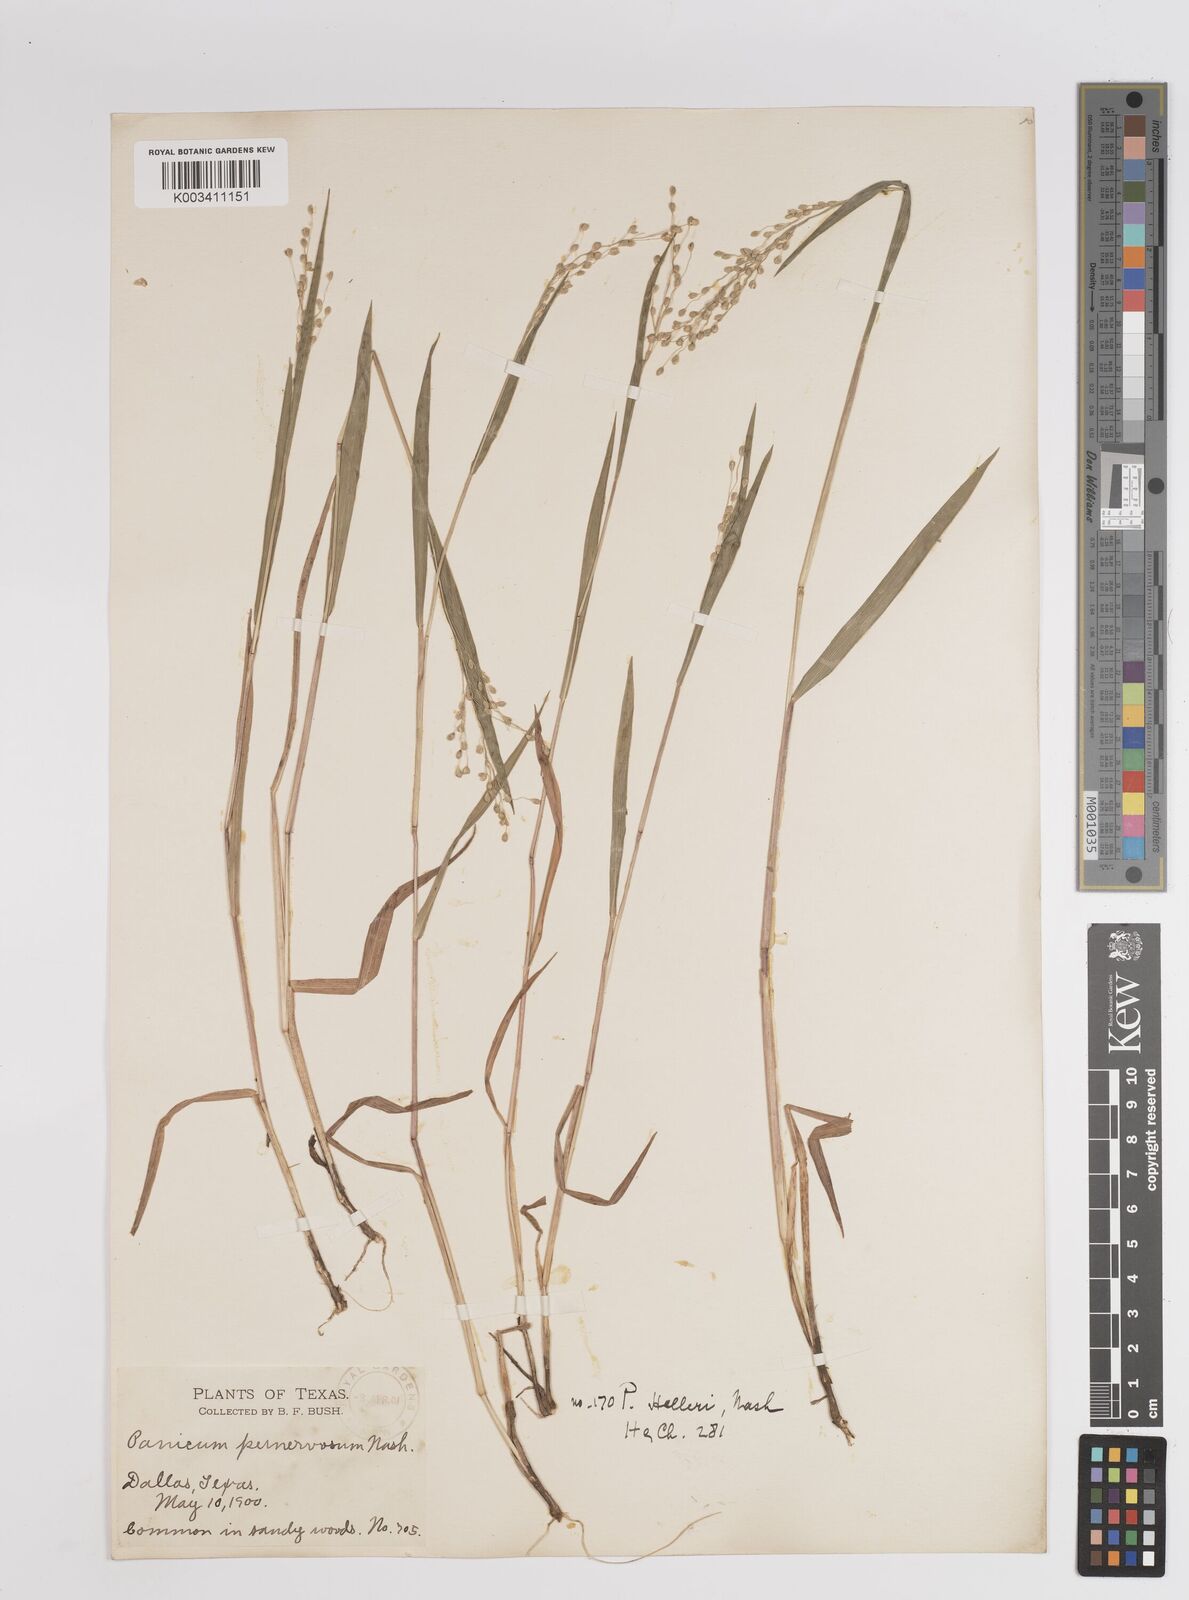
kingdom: Plantae
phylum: Tracheophyta
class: Liliopsida
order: Poales
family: Poaceae
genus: Dichanthelium
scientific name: Dichanthelium oligosanthes
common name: Few-anther obscuregrass
